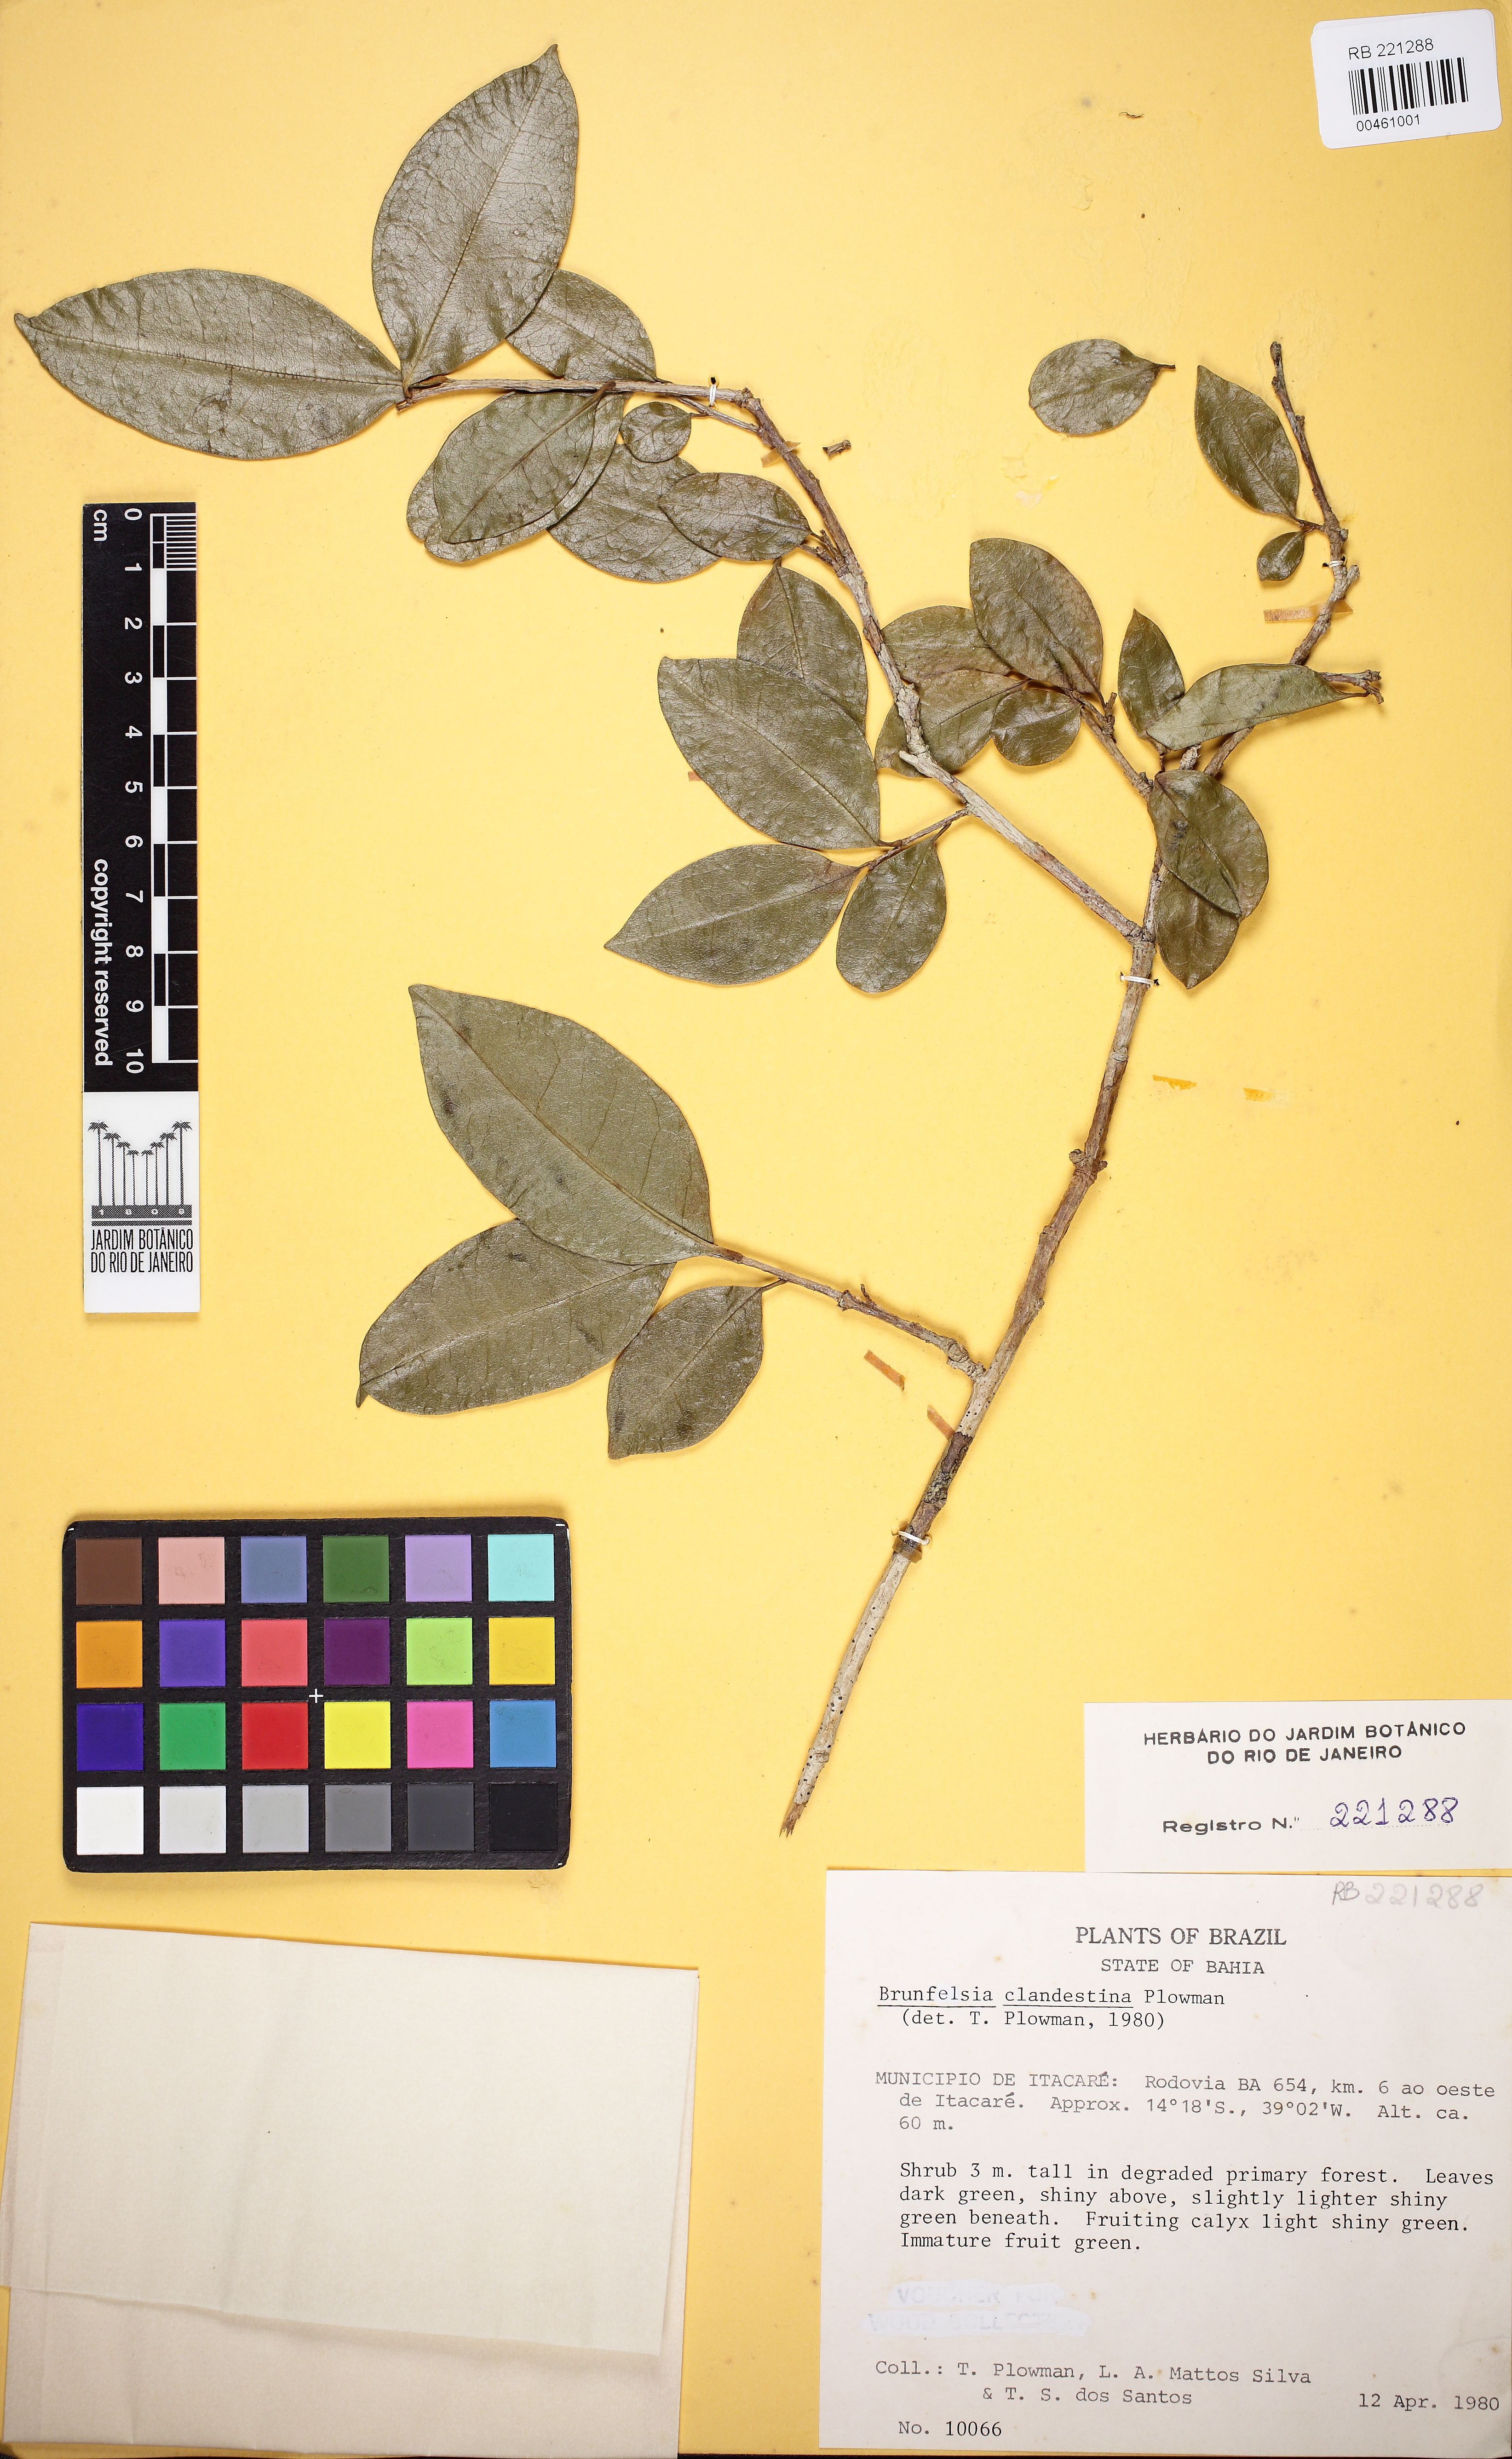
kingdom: Plantae
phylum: Tracheophyta
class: Magnoliopsida
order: Solanales
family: Solanaceae
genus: Brunfelsia
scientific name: Brunfelsia clandestina
